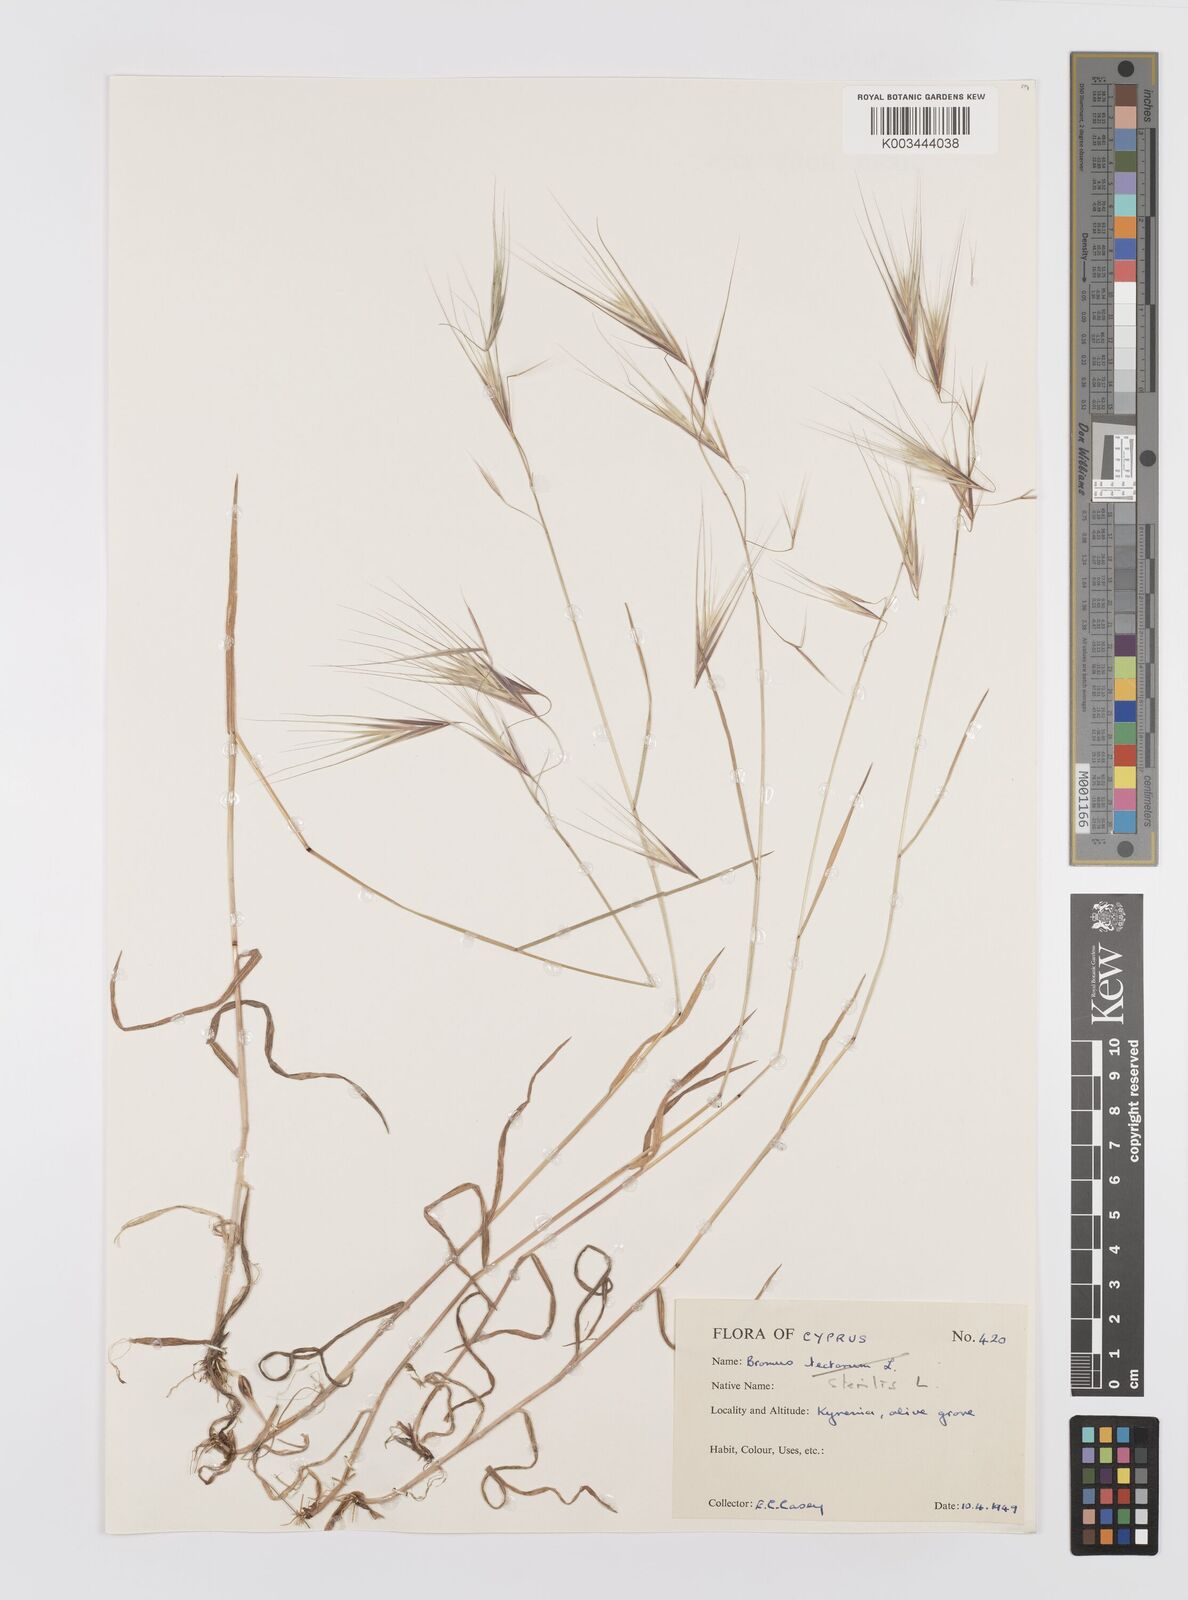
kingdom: Plantae
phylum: Tracheophyta
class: Liliopsida
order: Poales
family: Poaceae
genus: Bromus
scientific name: Bromus sterilis
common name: Poverty brome
